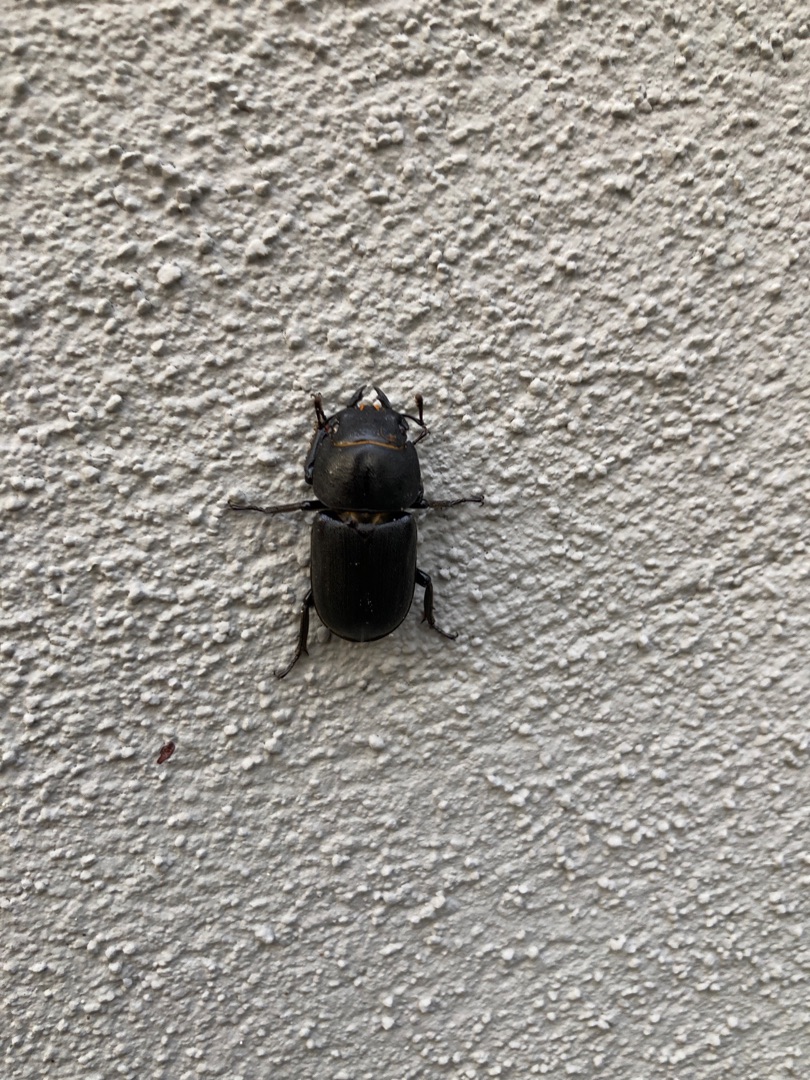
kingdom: Animalia
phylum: Arthropoda
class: Insecta
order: Coleoptera
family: Lucanidae
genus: Dorcus
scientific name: Dorcus parallelipipedus
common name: Bøghjort
